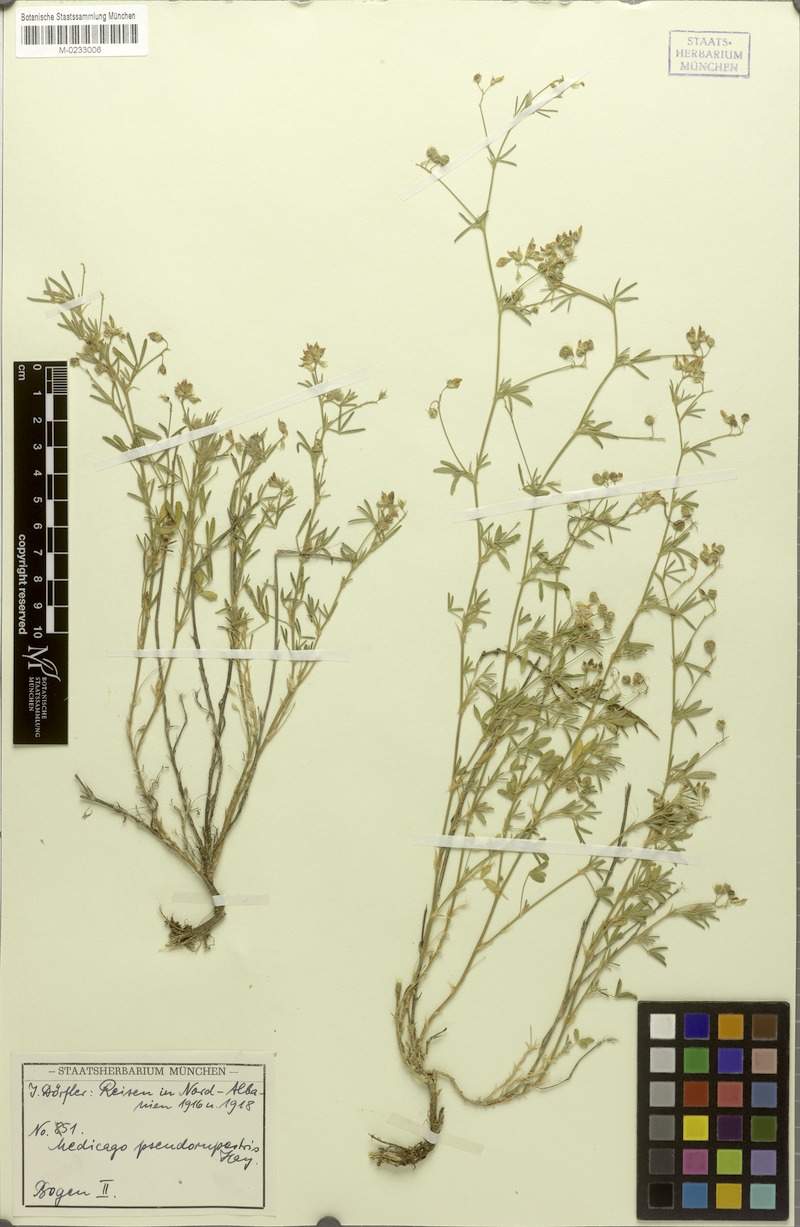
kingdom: Plantae
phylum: Tracheophyta
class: Magnoliopsida
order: Fabales
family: Fabaceae
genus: Medicago
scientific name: Medicago prostrata
